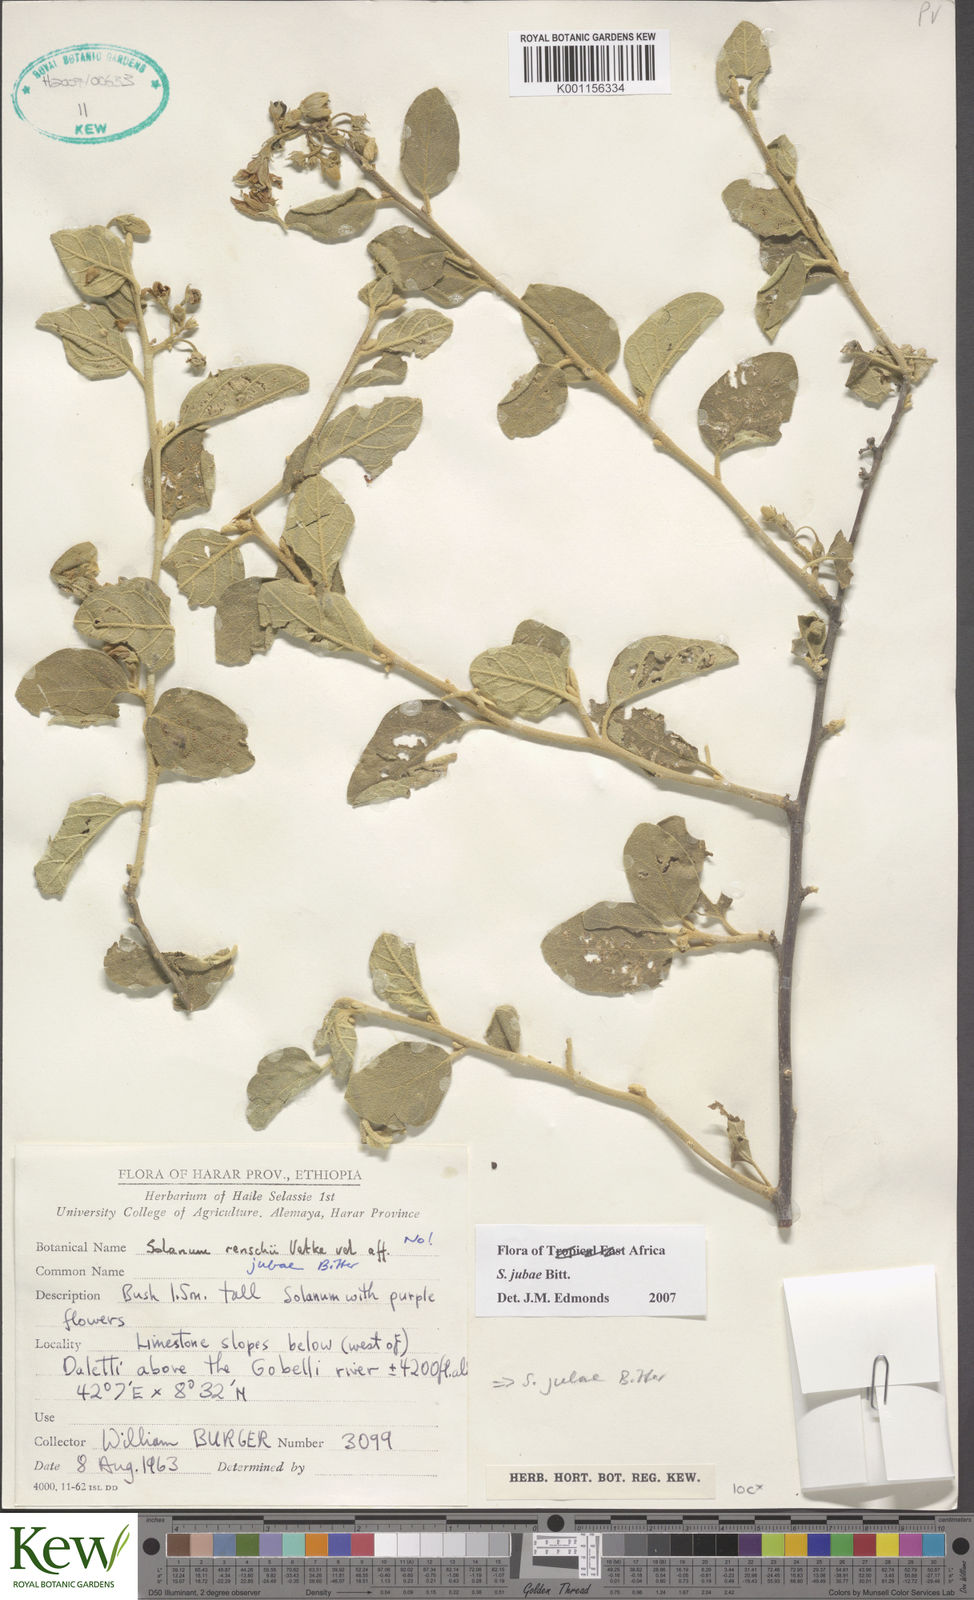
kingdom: Plantae
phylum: Tracheophyta
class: Magnoliopsida
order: Solanales
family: Solanaceae
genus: Solanum
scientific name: Solanum jubae
